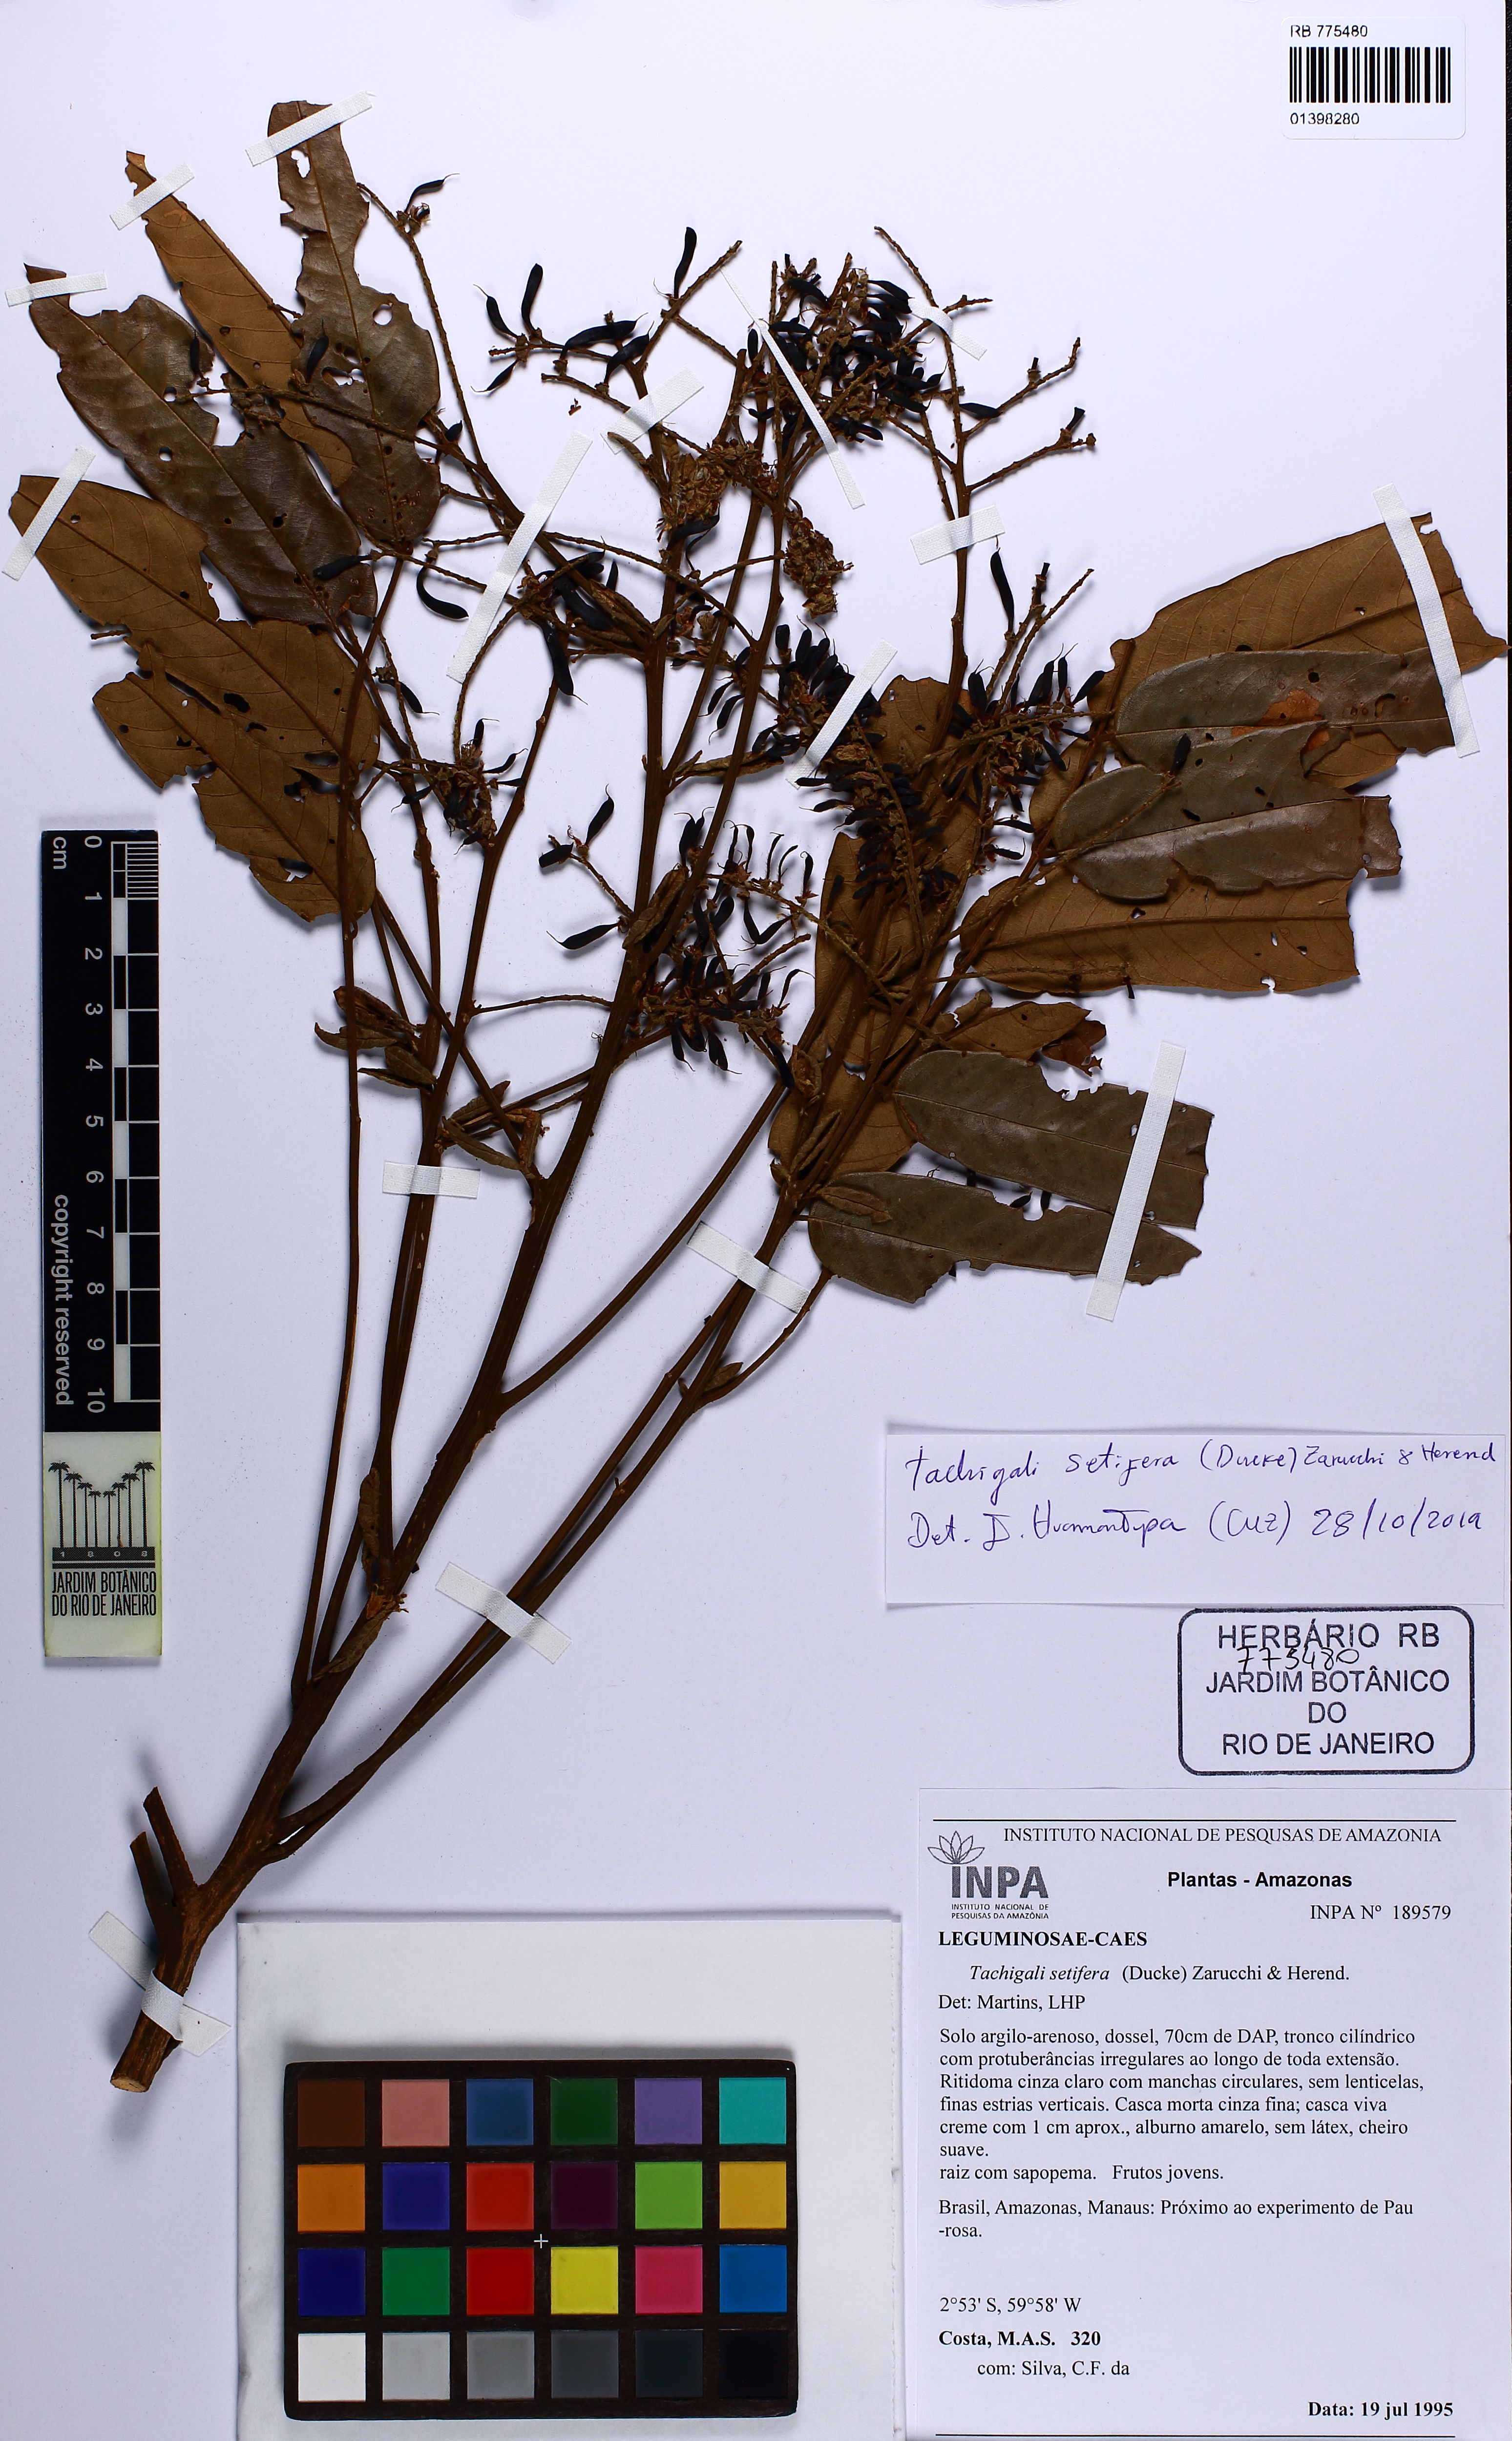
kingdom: Plantae
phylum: Tracheophyta
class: Magnoliopsida
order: Fabales
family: Fabaceae
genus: Tachigali
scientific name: Tachigali setifera
